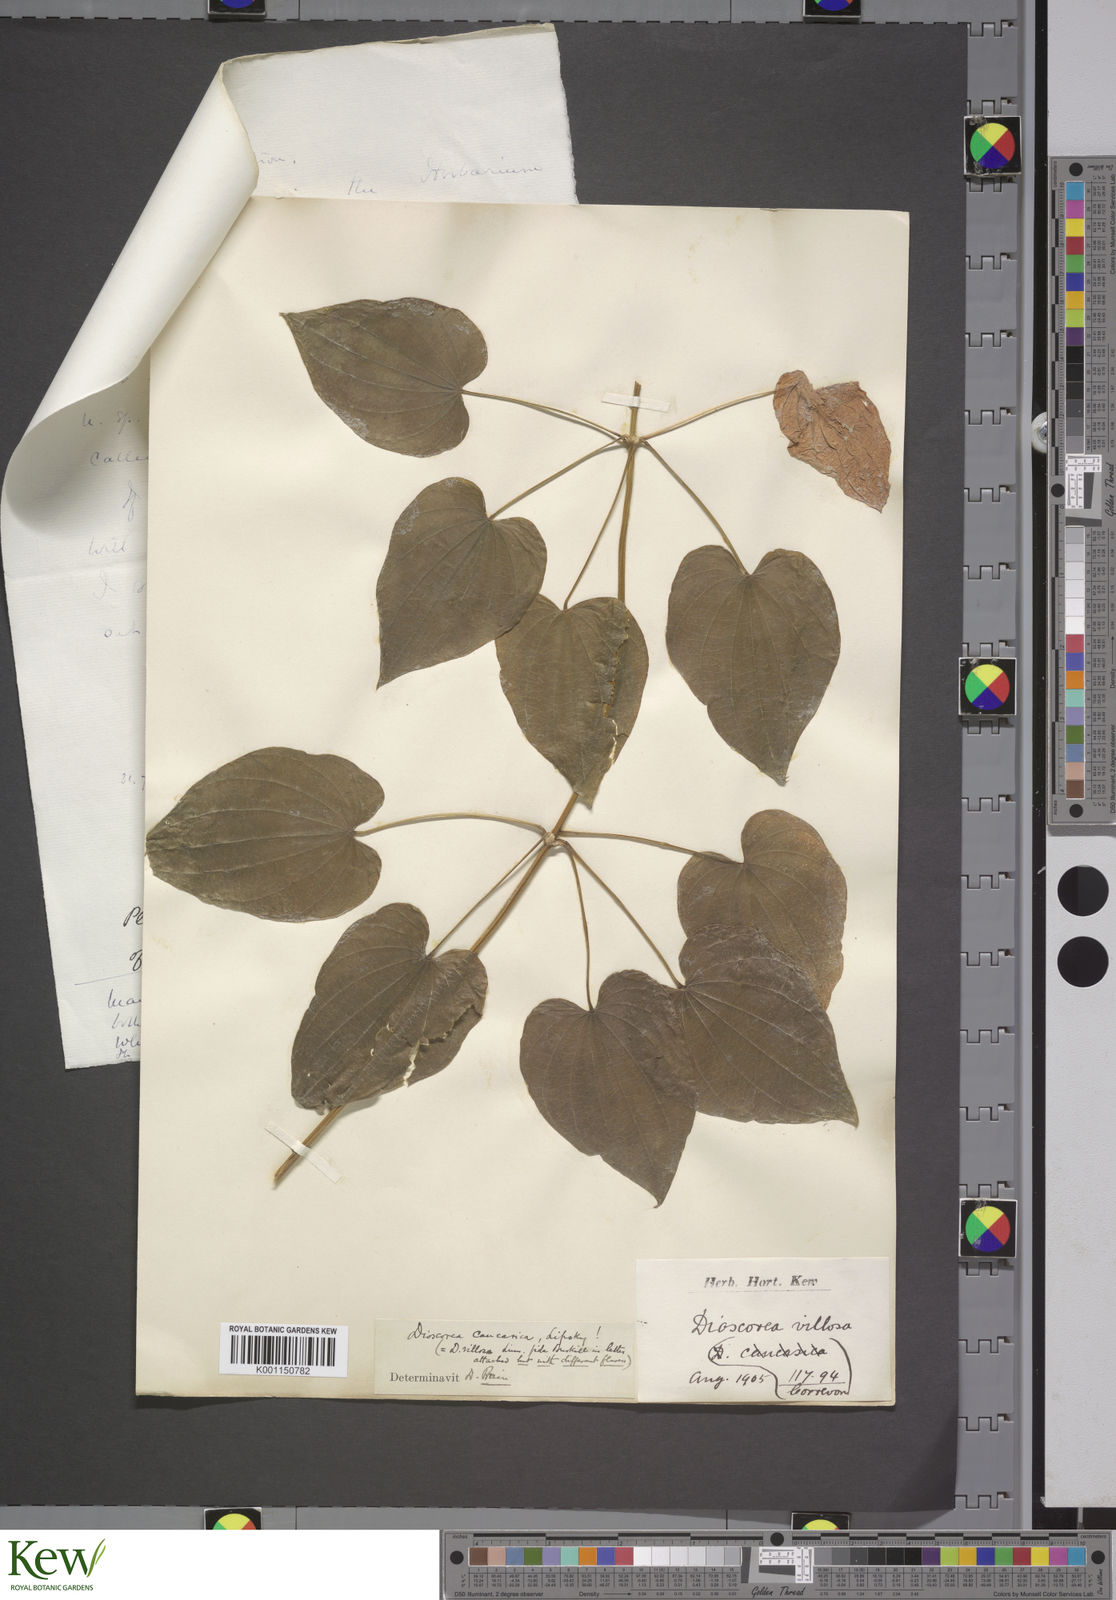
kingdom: Plantae
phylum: Tracheophyta
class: Liliopsida
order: Dioscoreales
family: Dioscoreaceae
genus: Dioscorea
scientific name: Dioscorea caucasica
